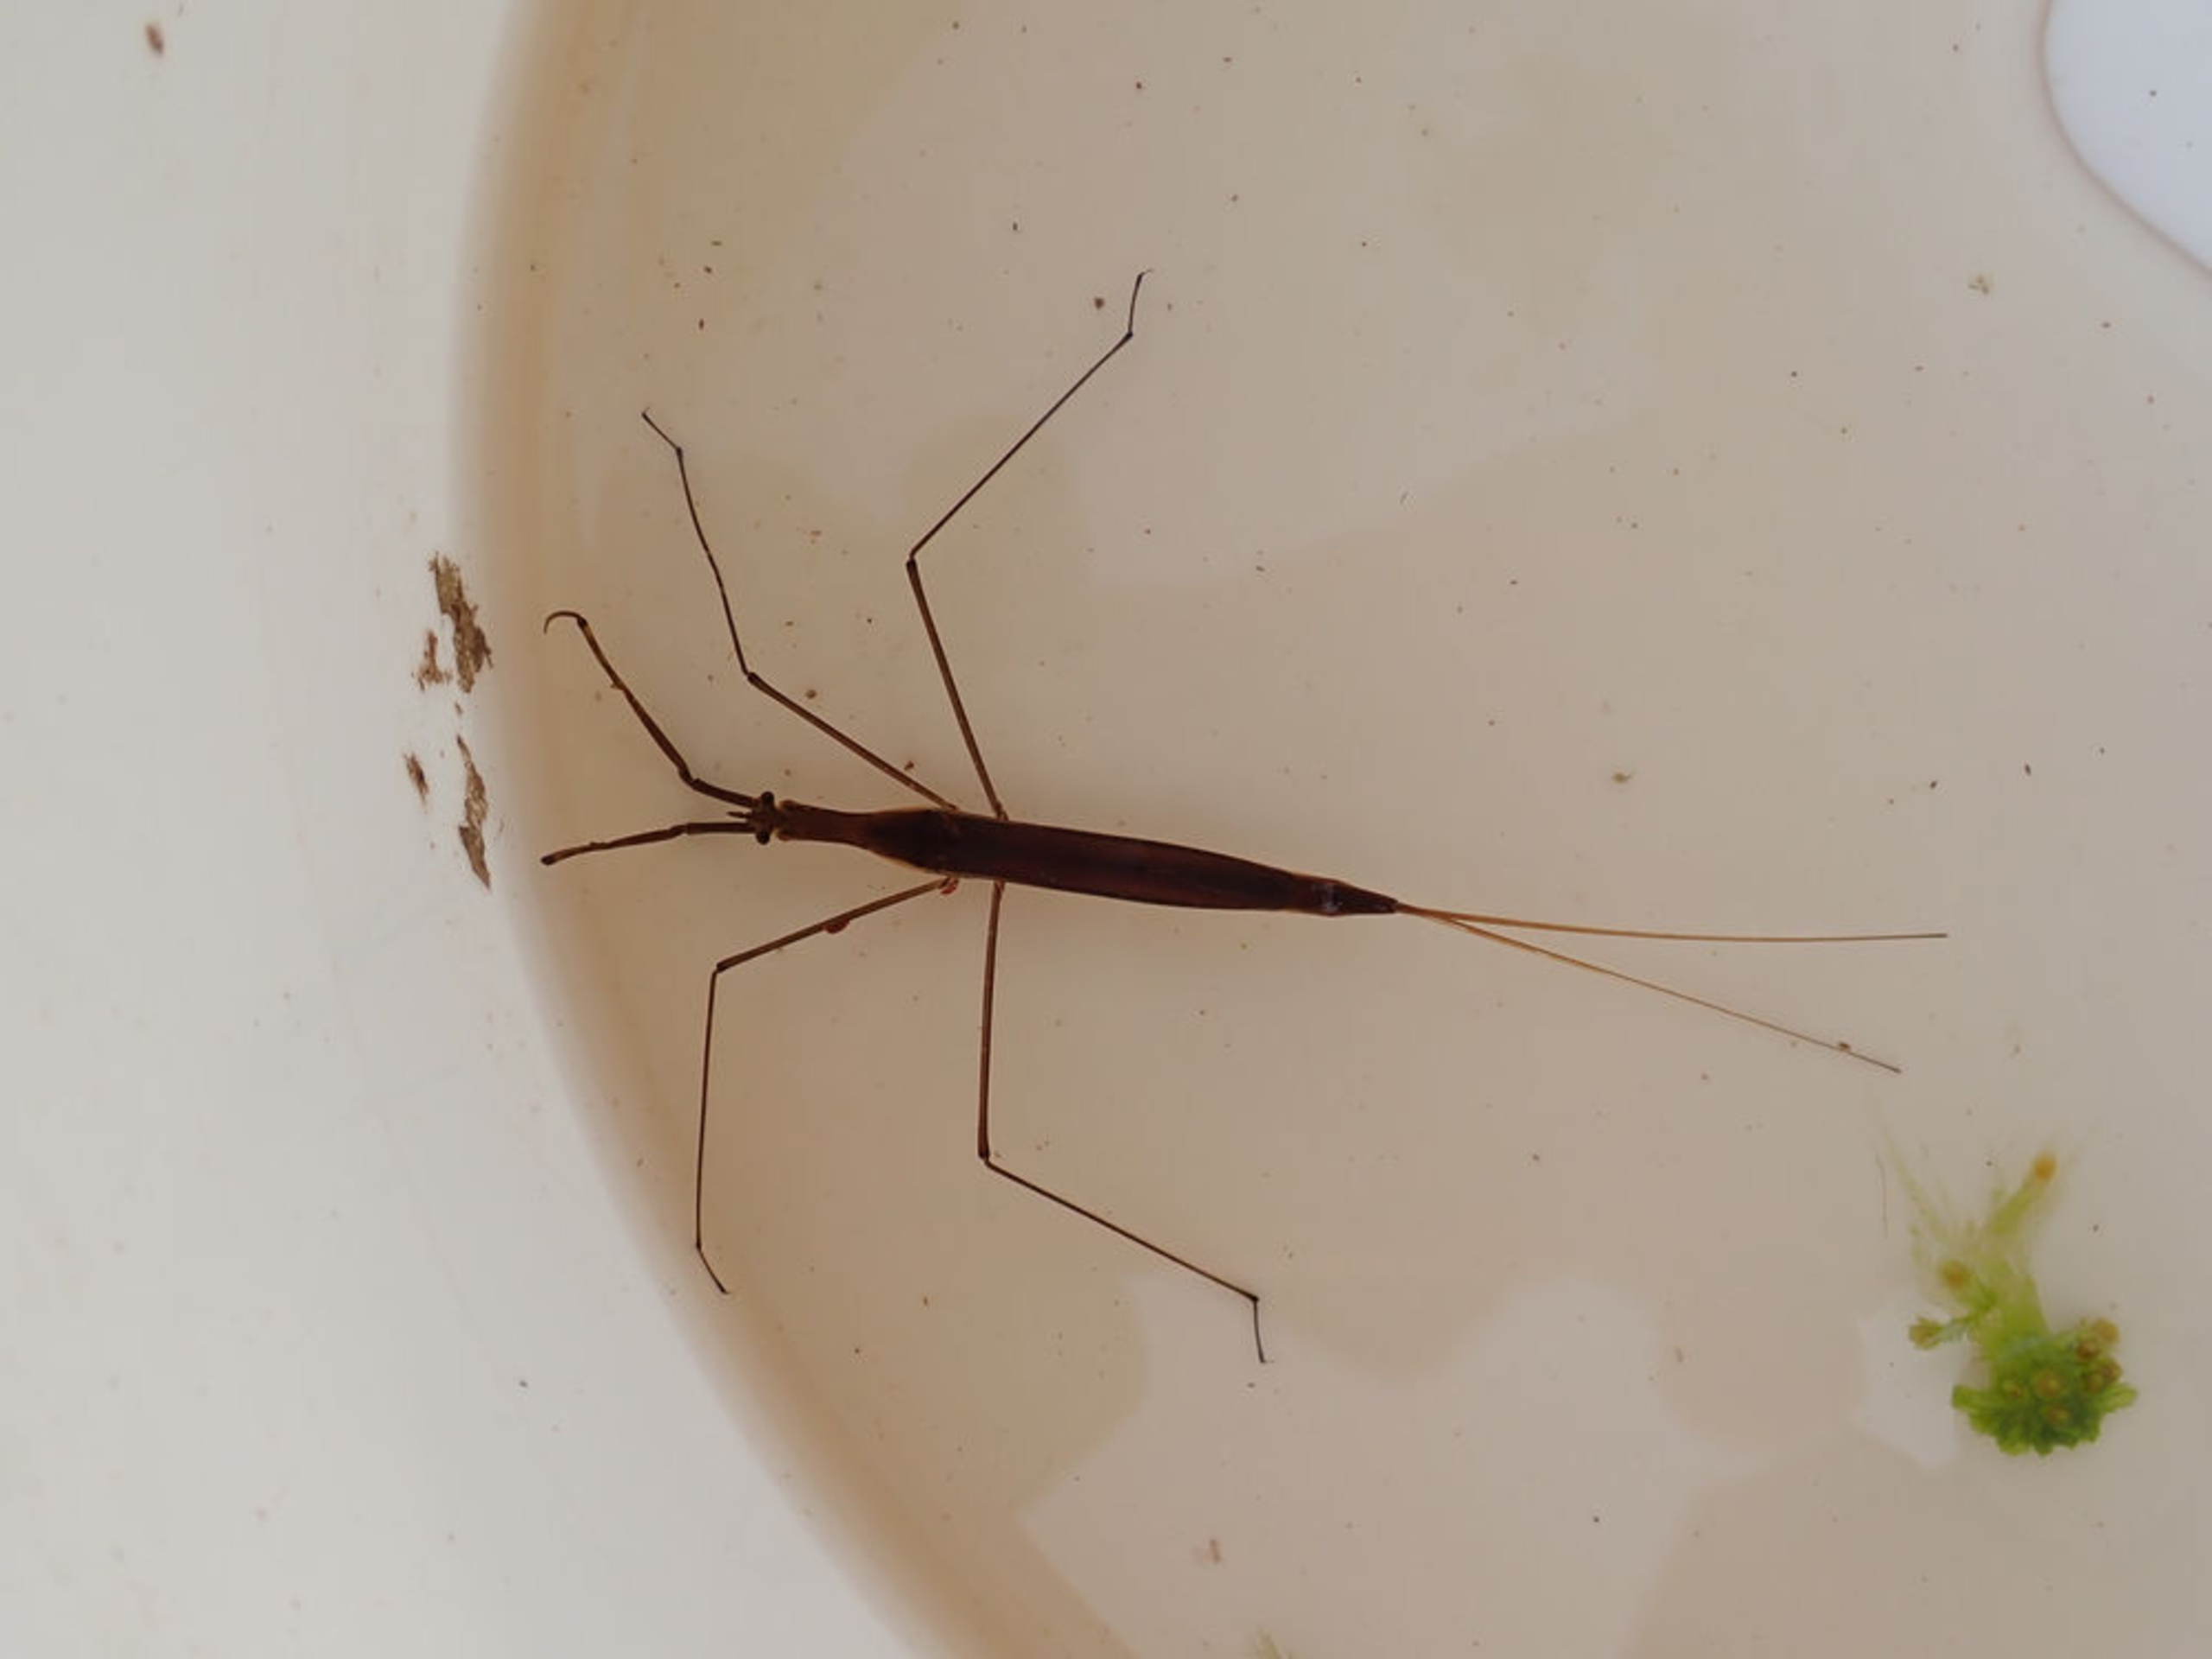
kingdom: Animalia
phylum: Arthropoda
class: Insecta
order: Hemiptera
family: Nepidae
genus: Ranatra
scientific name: Ranatra linearis
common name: Stavtæge
